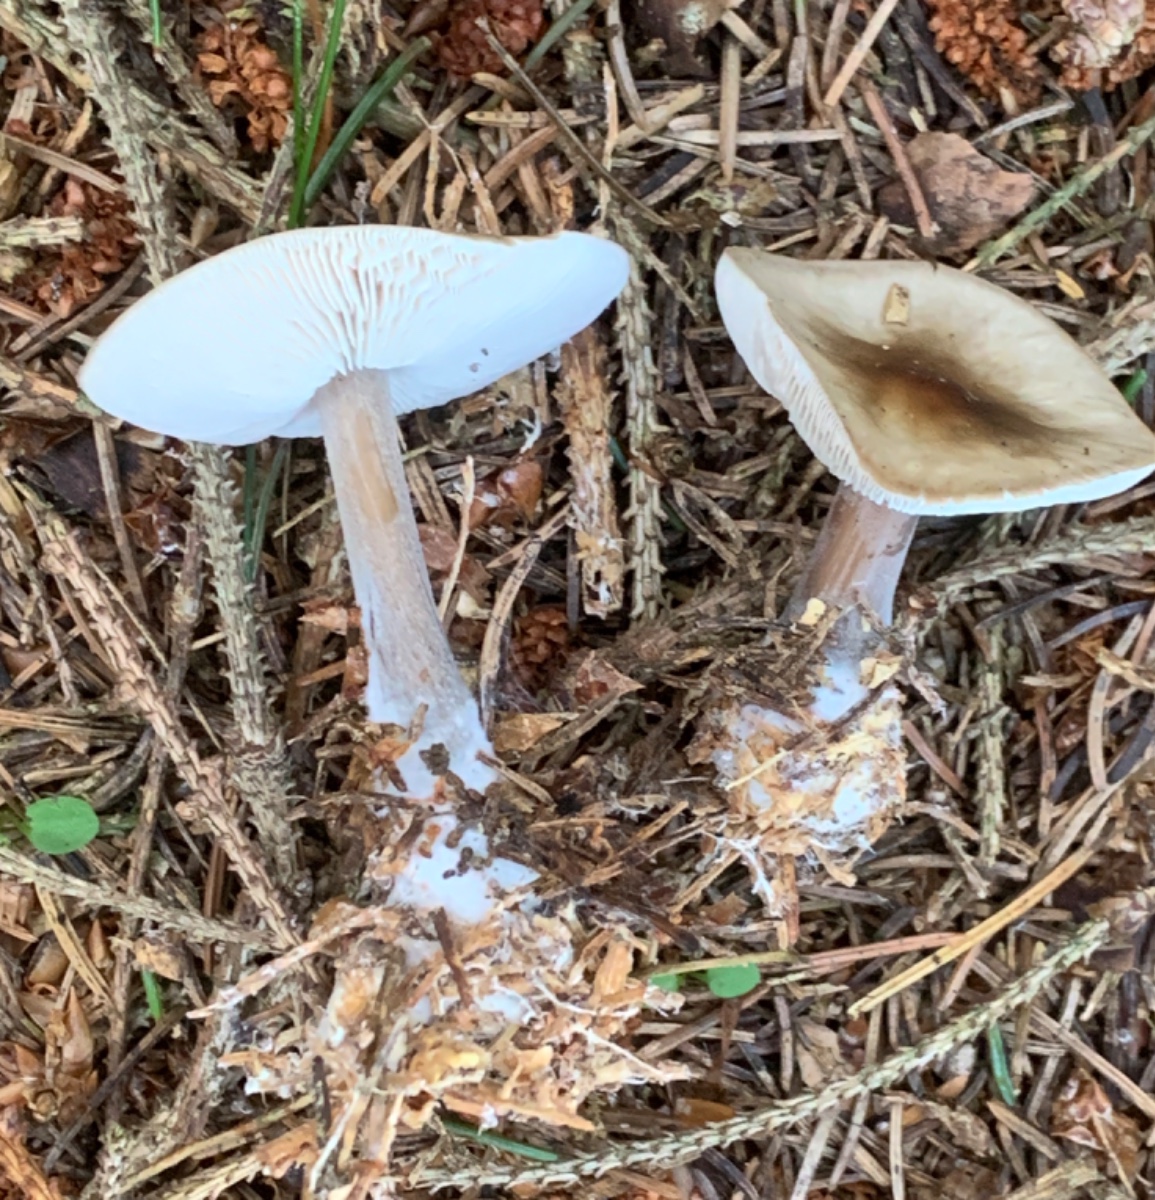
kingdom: Fungi
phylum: Basidiomycota
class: Agaricomycetes
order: Agaricales
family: Omphalotaceae
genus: Rhodocollybia
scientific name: Rhodocollybia asema
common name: horngrå fladhat
